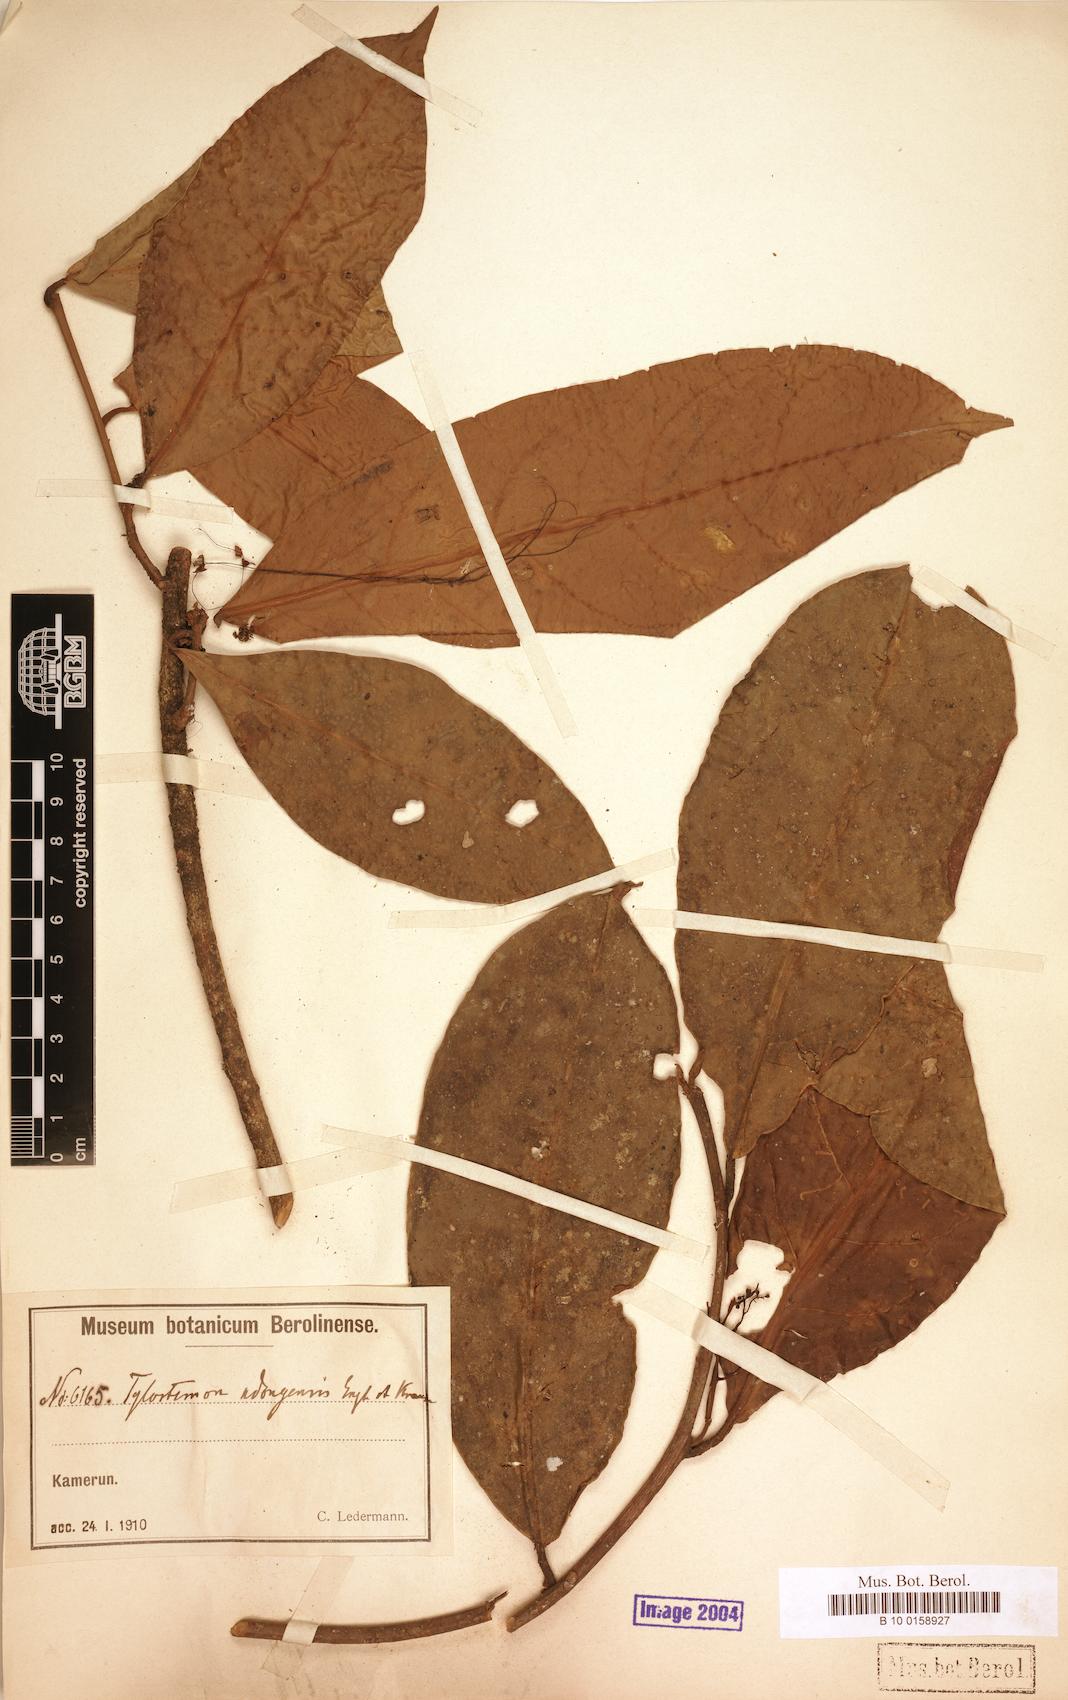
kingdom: Plantae
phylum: Tracheophyta
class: Magnoliopsida
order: Laurales
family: Lauraceae
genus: Beilschmiedia
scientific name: Beilschmiedia ndongensis
